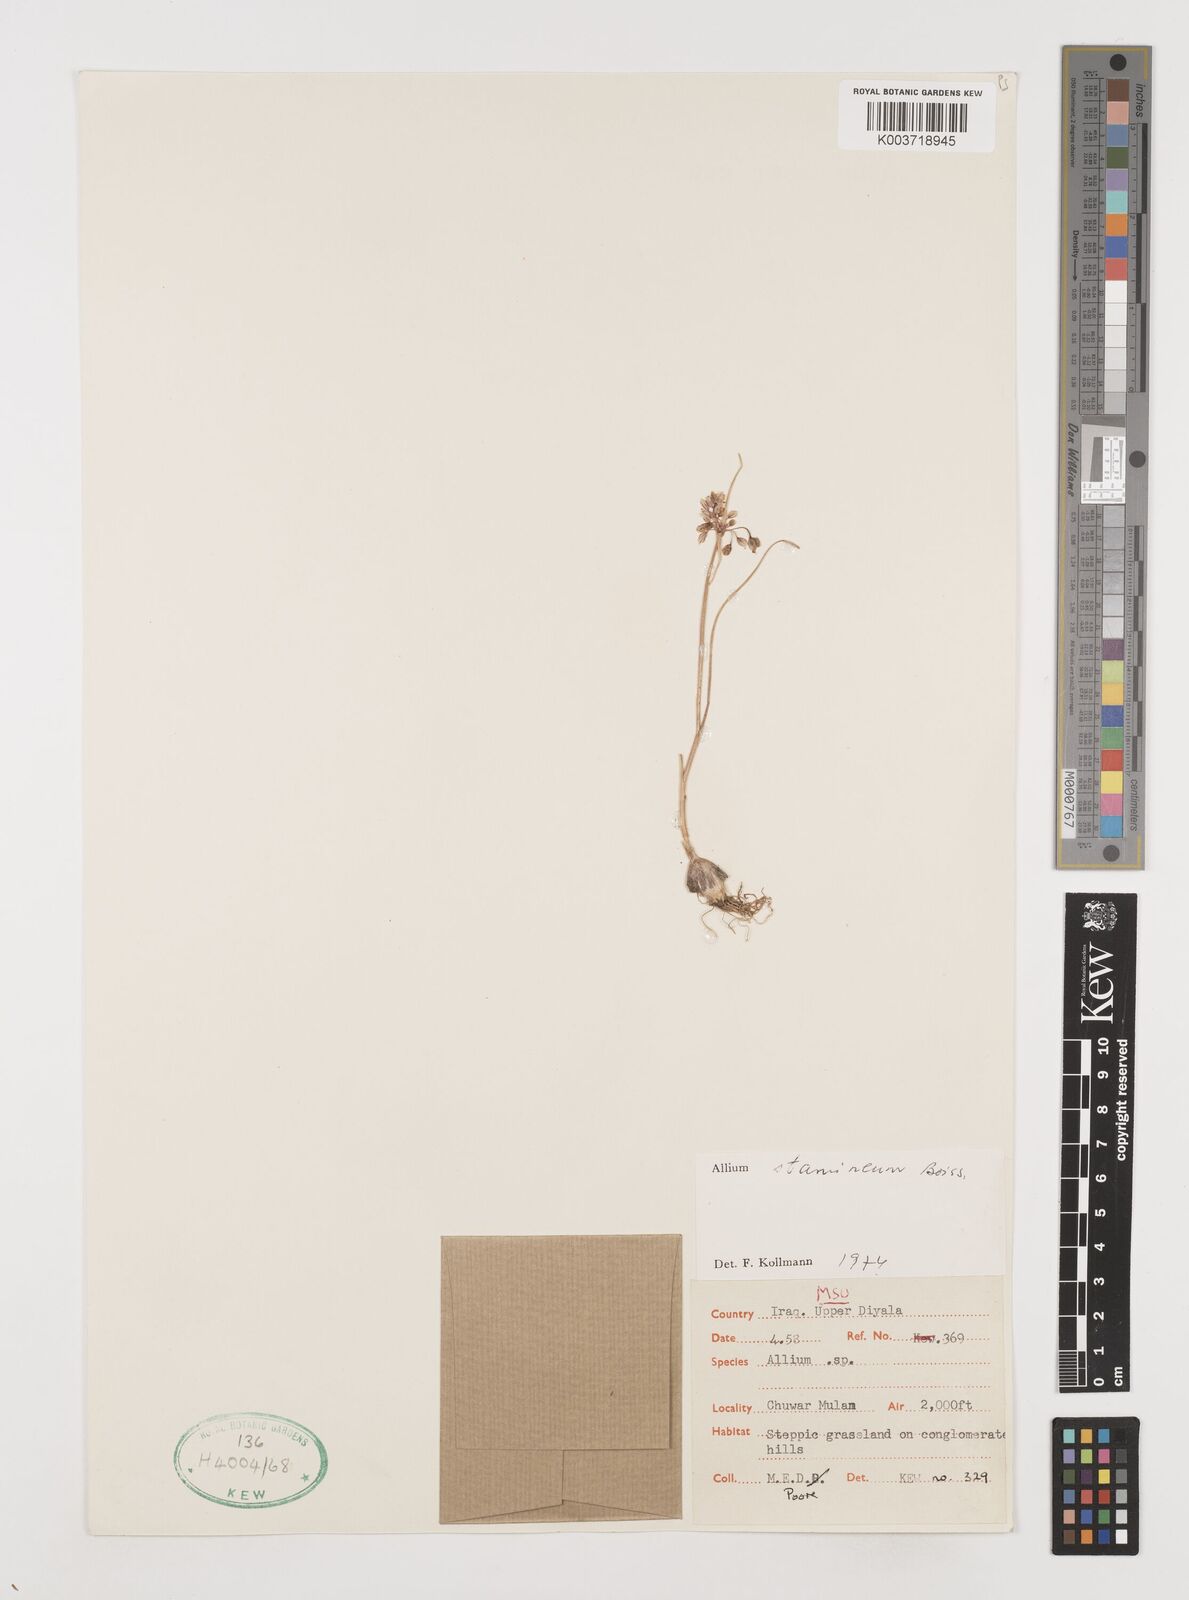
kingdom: Plantae
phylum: Tracheophyta
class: Liliopsida
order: Asparagales
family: Amaryllidaceae
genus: Allium
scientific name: Allium stamineum
